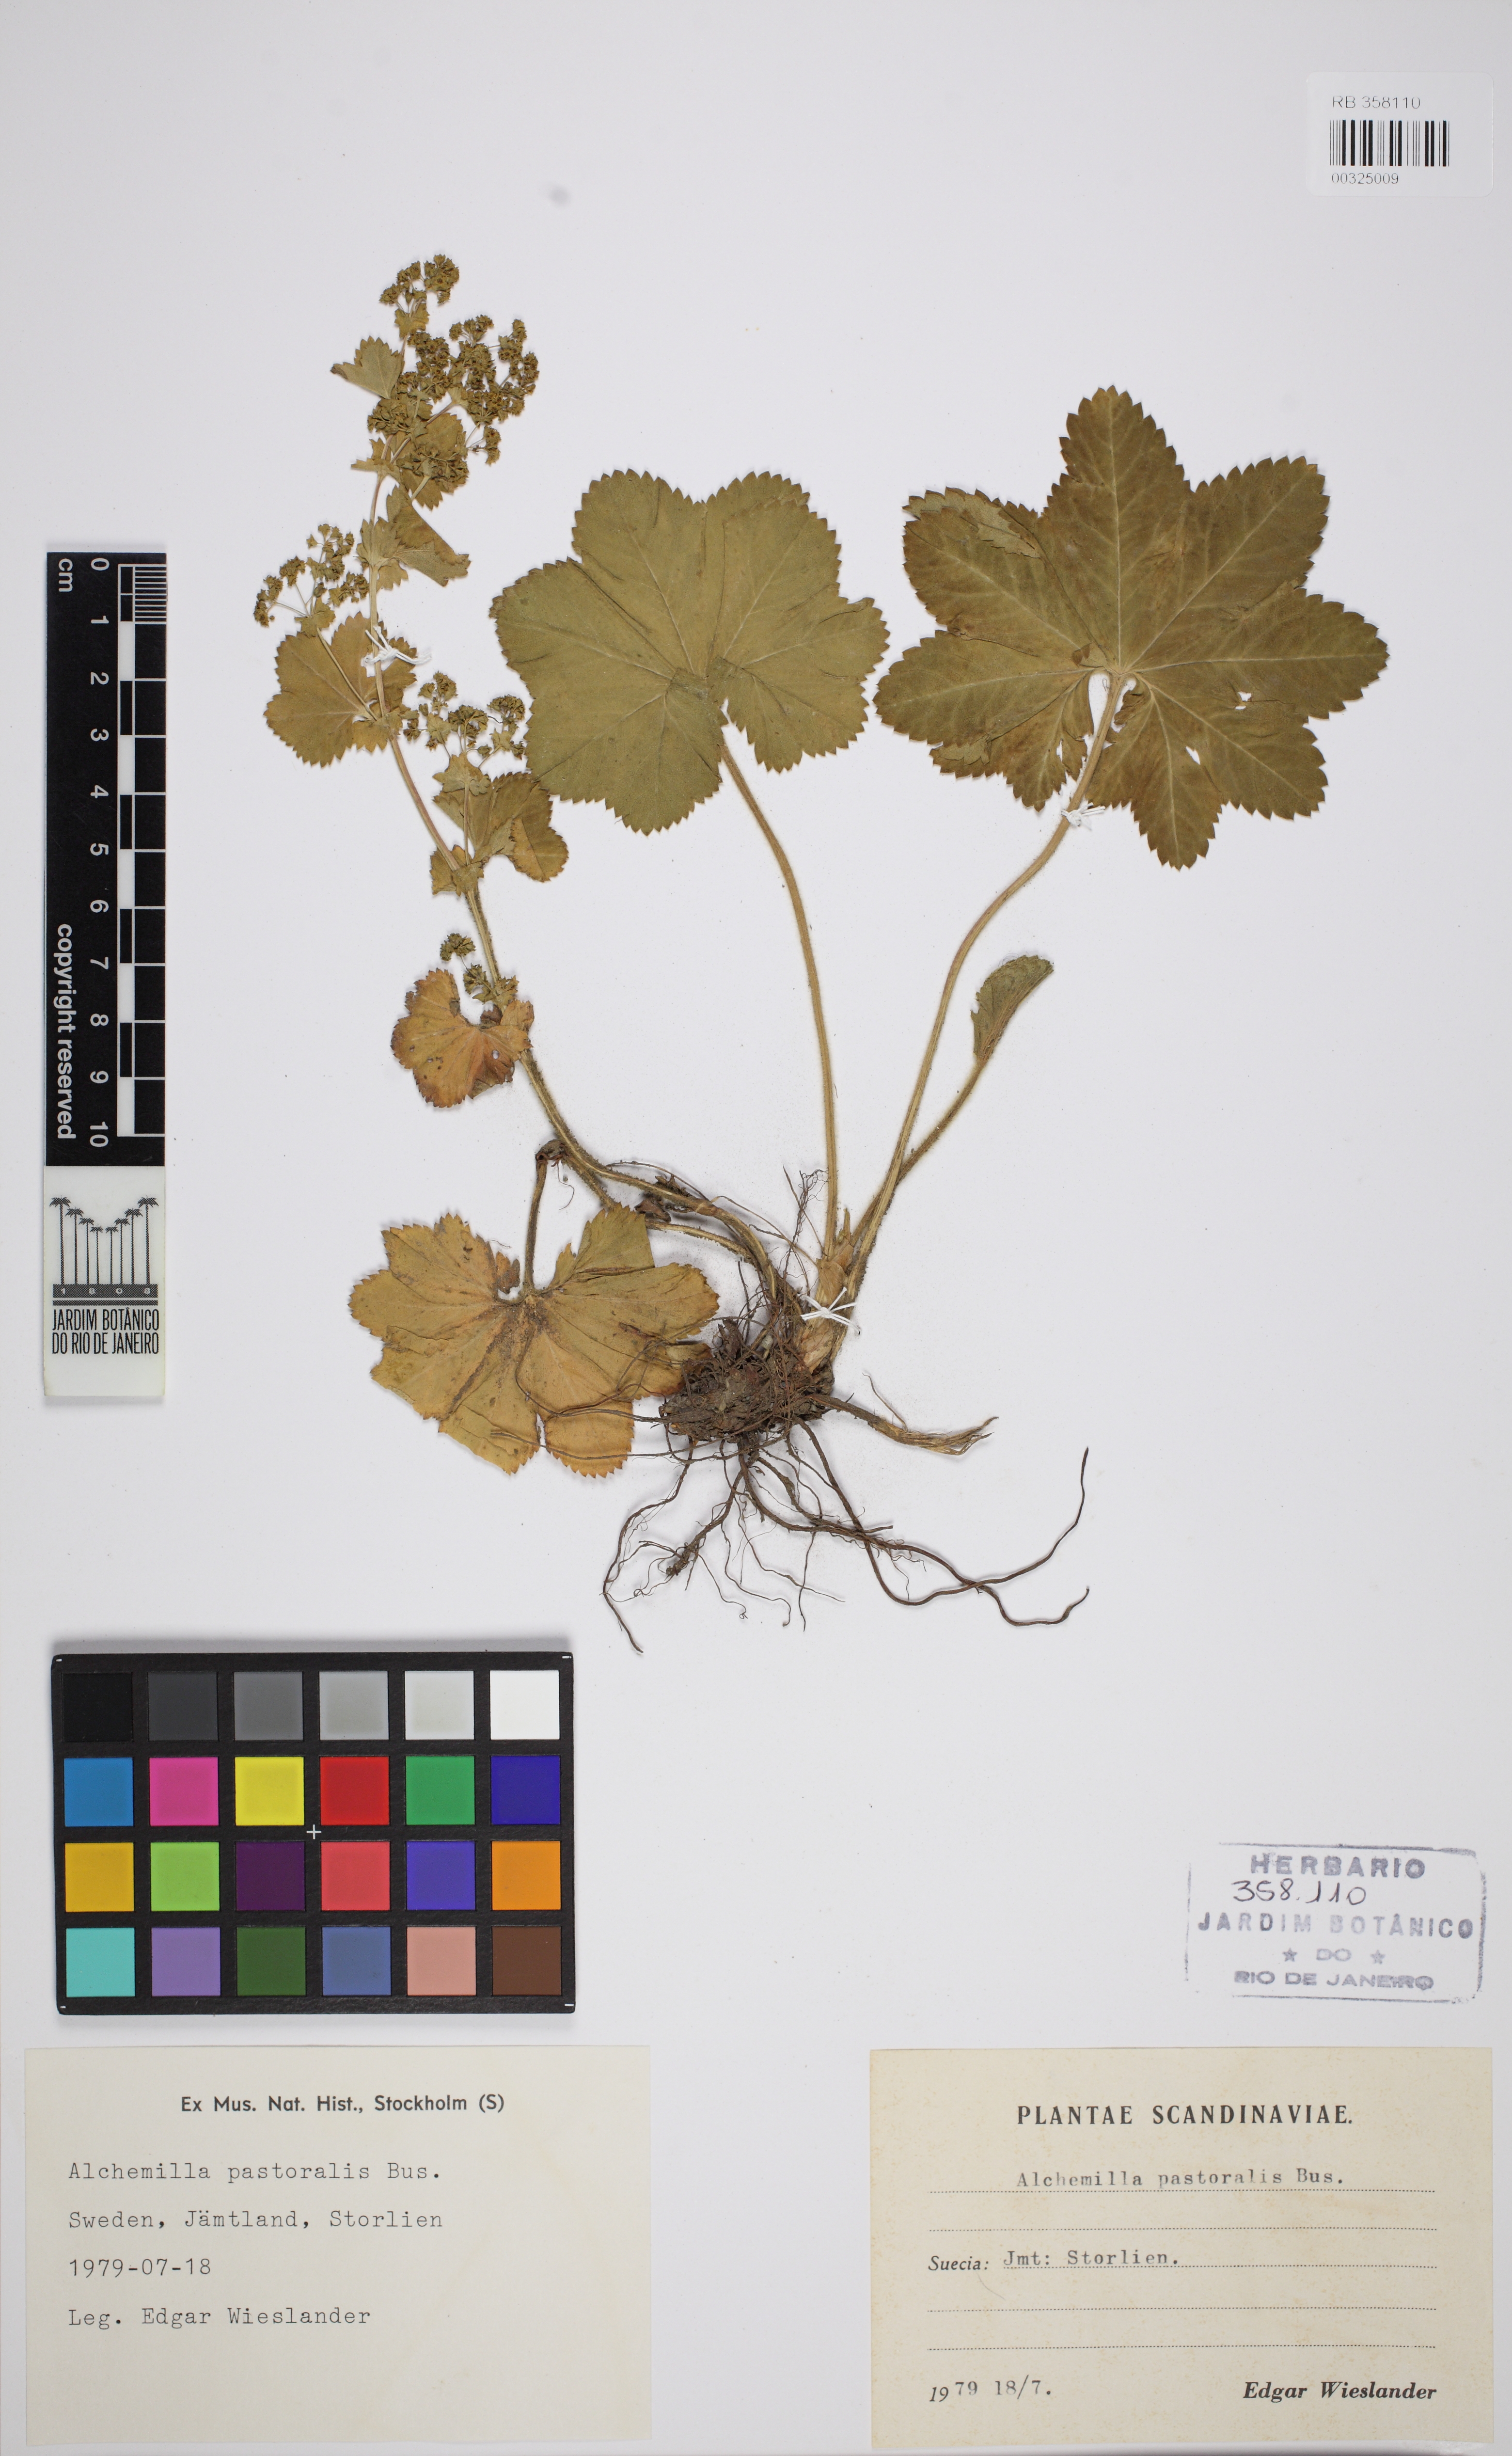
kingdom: Plantae
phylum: Tracheophyta
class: Magnoliopsida
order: Rosales
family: Rosaceae
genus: Alchemilla
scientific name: Alchemilla monticola
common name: Hairy lady's mantle
